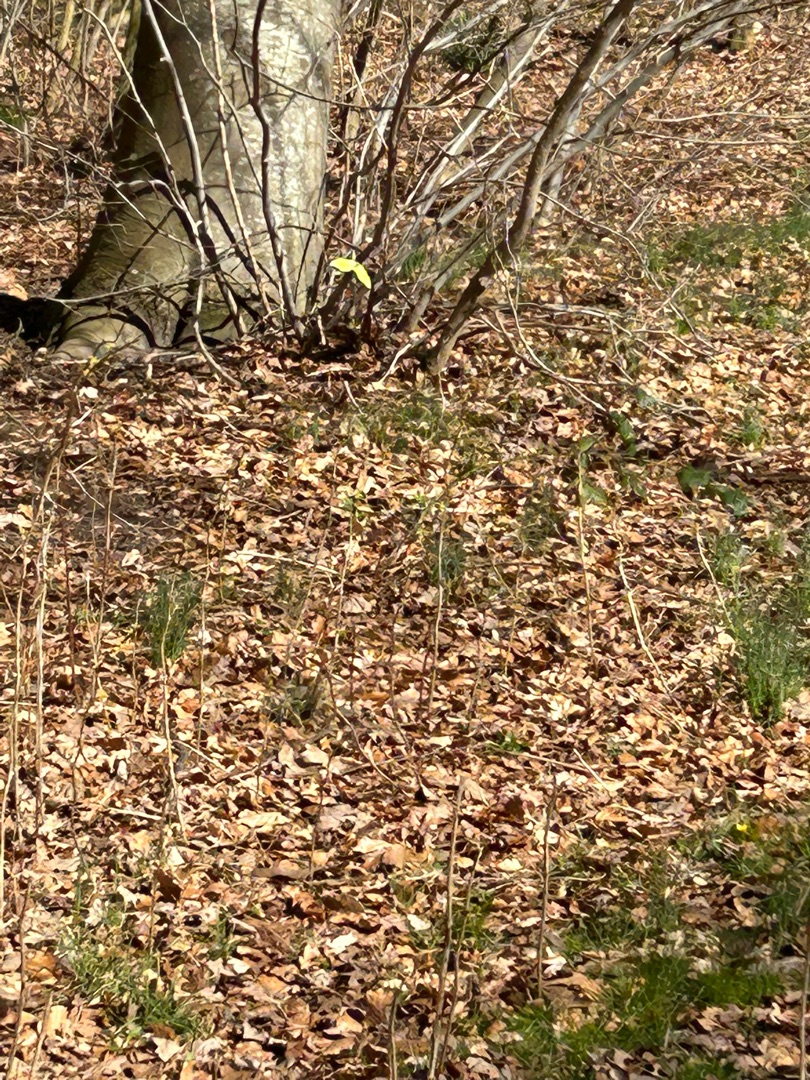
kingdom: Animalia
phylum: Arthropoda
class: Insecta
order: Lepidoptera
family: Pieridae
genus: Gonepteryx
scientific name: Gonepteryx rhamni
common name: Citronsommerfugl
